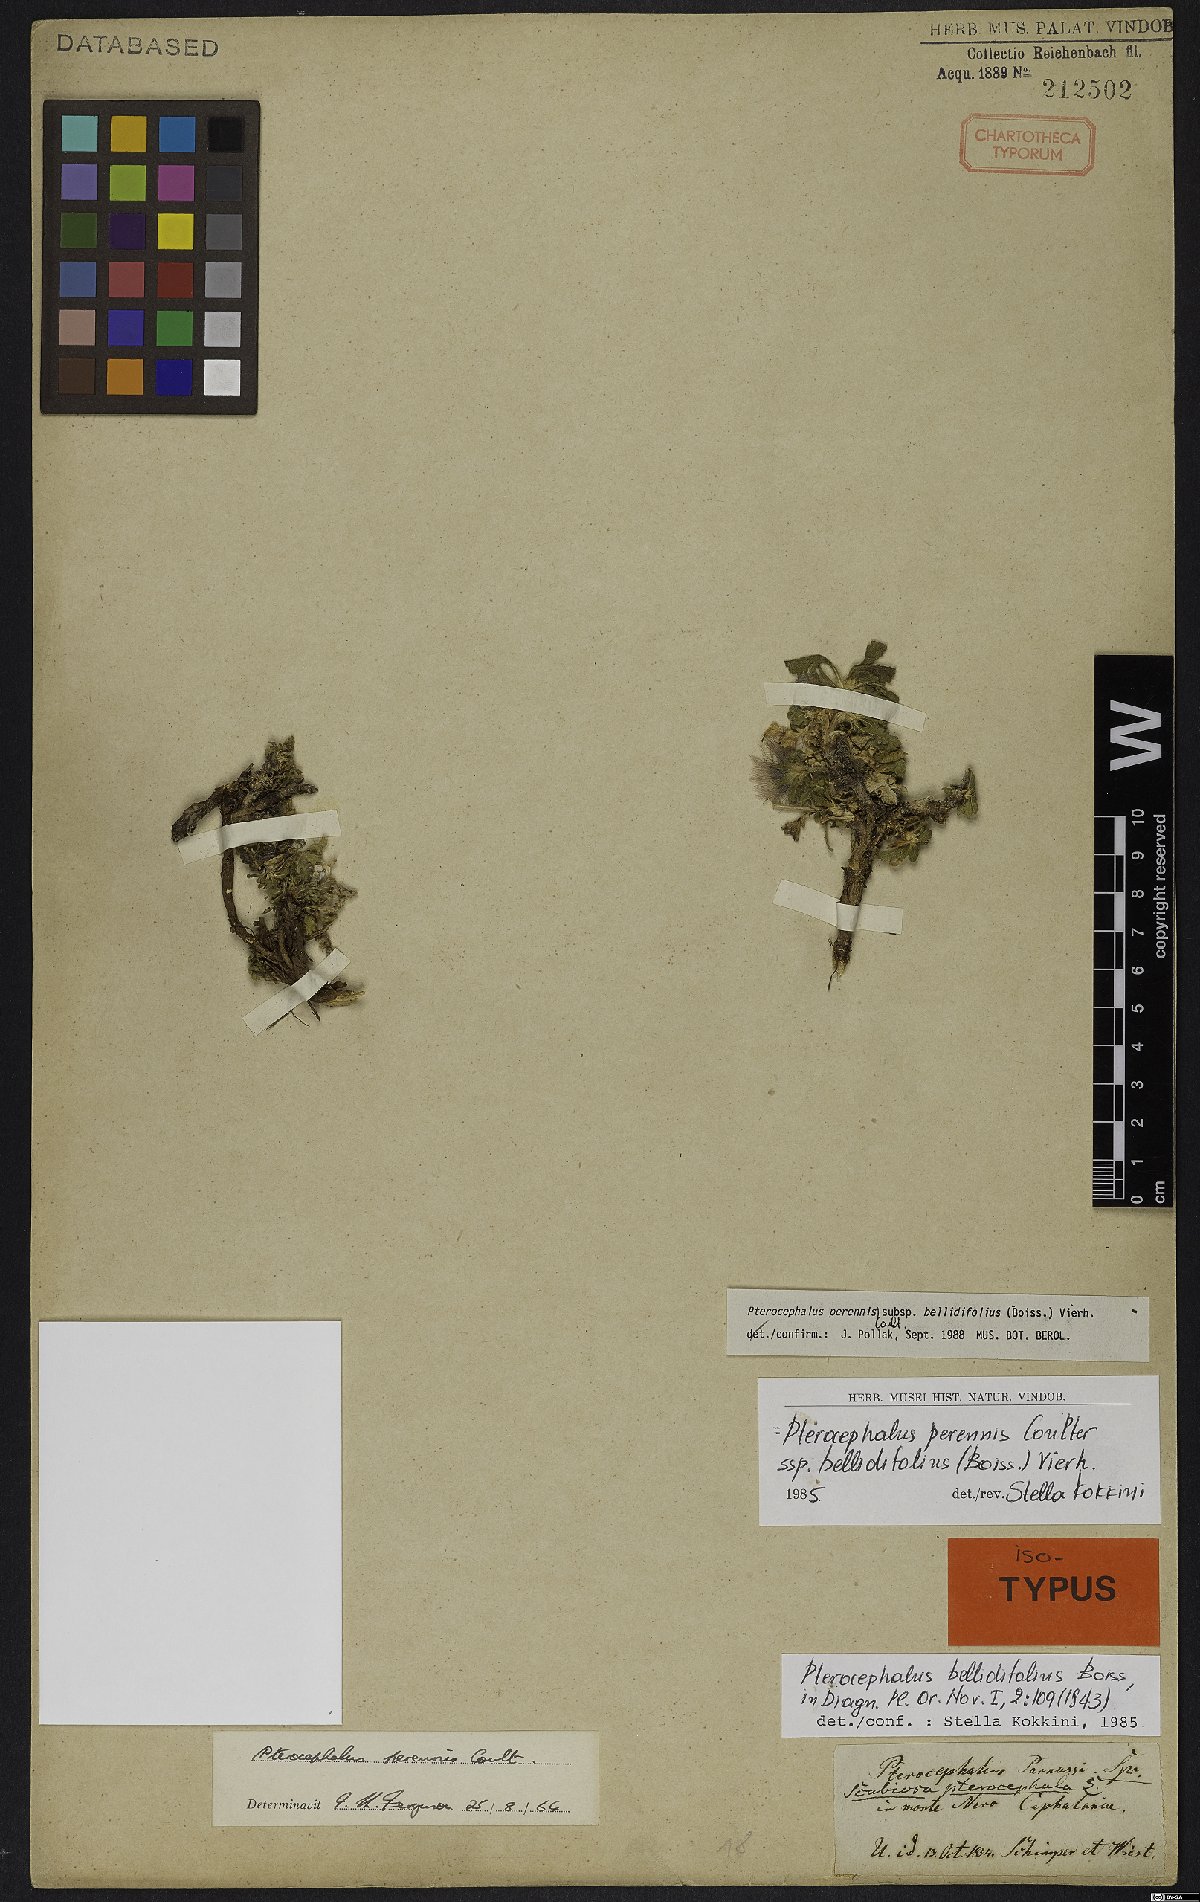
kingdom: Plantae
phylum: Tracheophyta
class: Magnoliopsida
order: Dipsacales
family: Caprifoliaceae
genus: Pterocephalus
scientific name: Pterocephalus perennis
